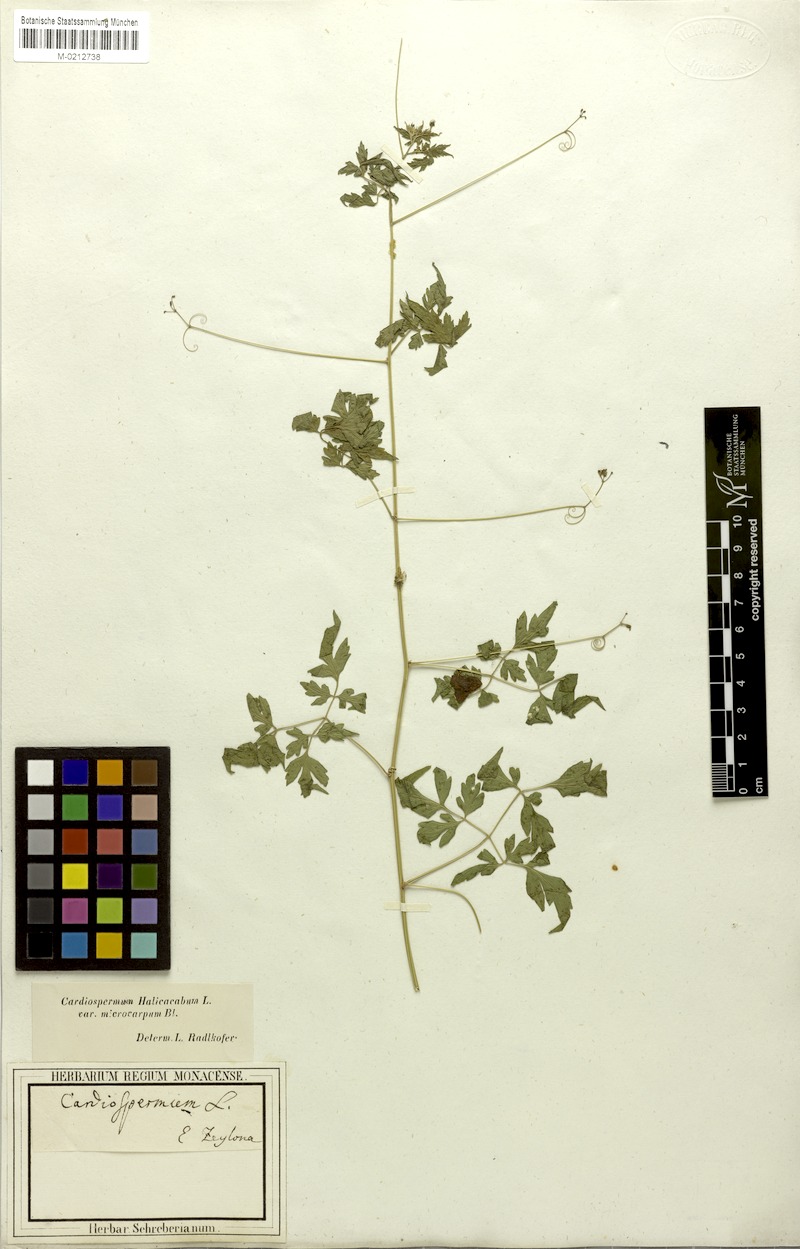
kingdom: Plantae
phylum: Tracheophyta
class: Magnoliopsida
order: Sapindales
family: Sapindaceae
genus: Cardiospermum
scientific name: Cardiospermum microcarpum
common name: Heart seed
